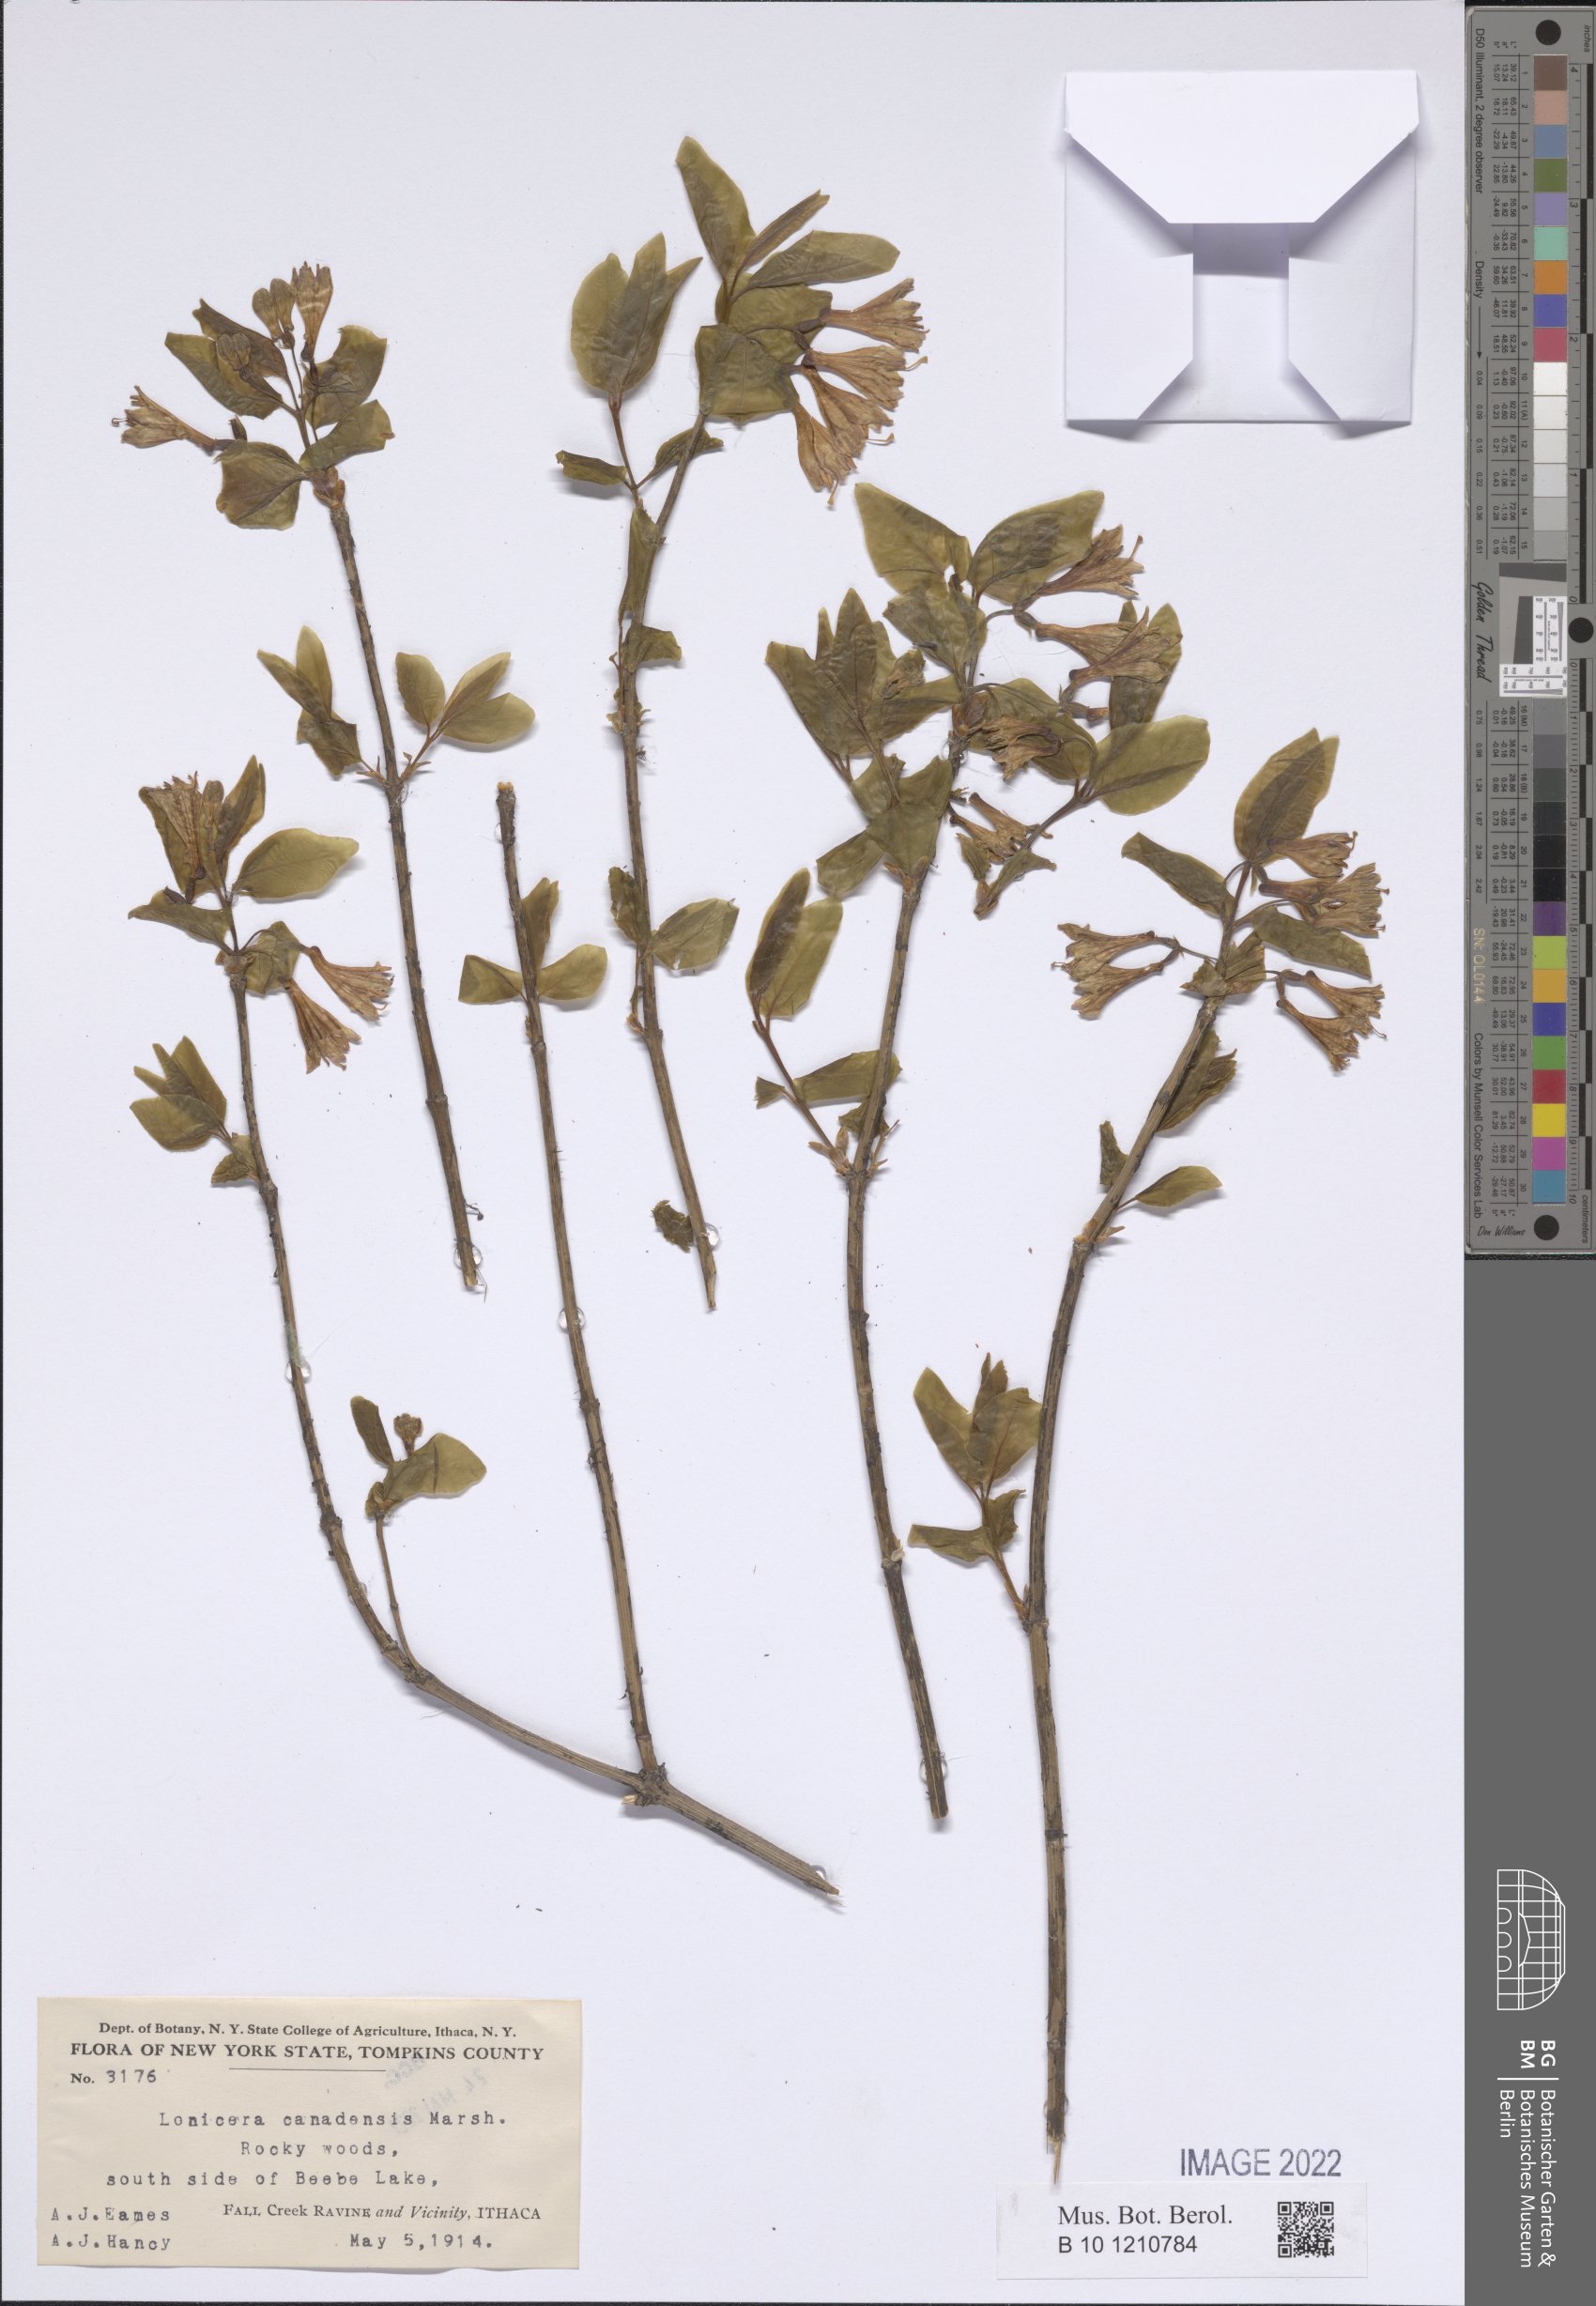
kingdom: Plantae
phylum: Tracheophyta
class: Magnoliopsida
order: Dipsacales
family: Caprifoliaceae
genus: Lonicera
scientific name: Lonicera canadensis
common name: American fly-honeysuckle
